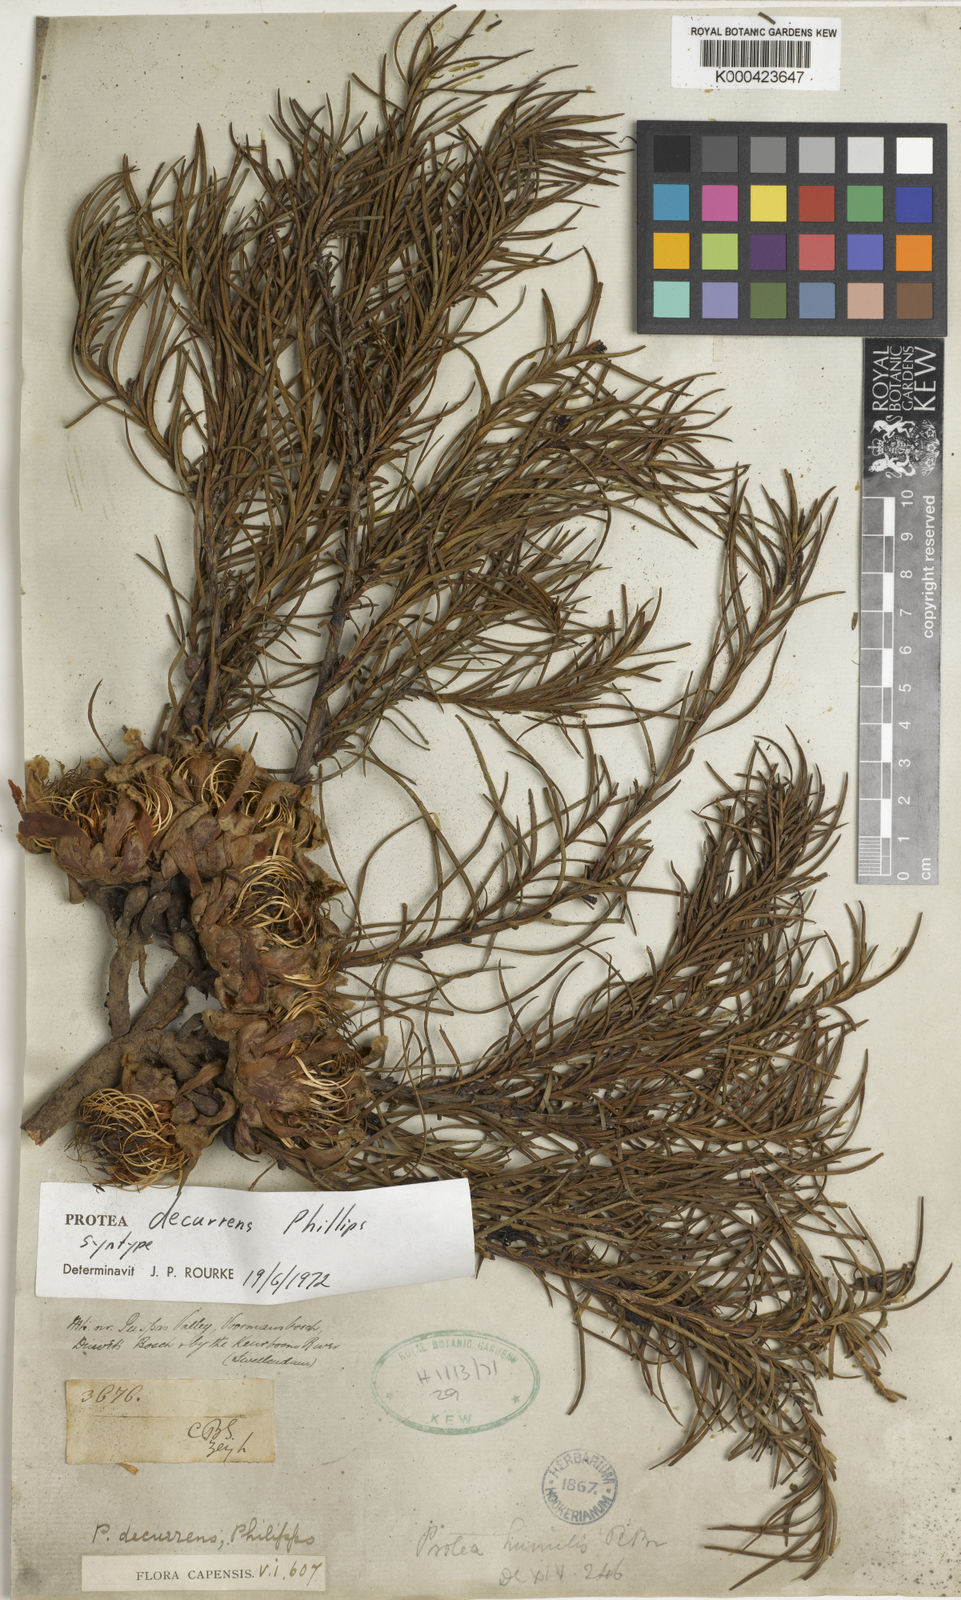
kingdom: Plantae
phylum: Tracheophyta
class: Magnoliopsida
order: Proteales
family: Proteaceae
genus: Protea
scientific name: Protea decurrens
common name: Linear-leaf sugarbush
